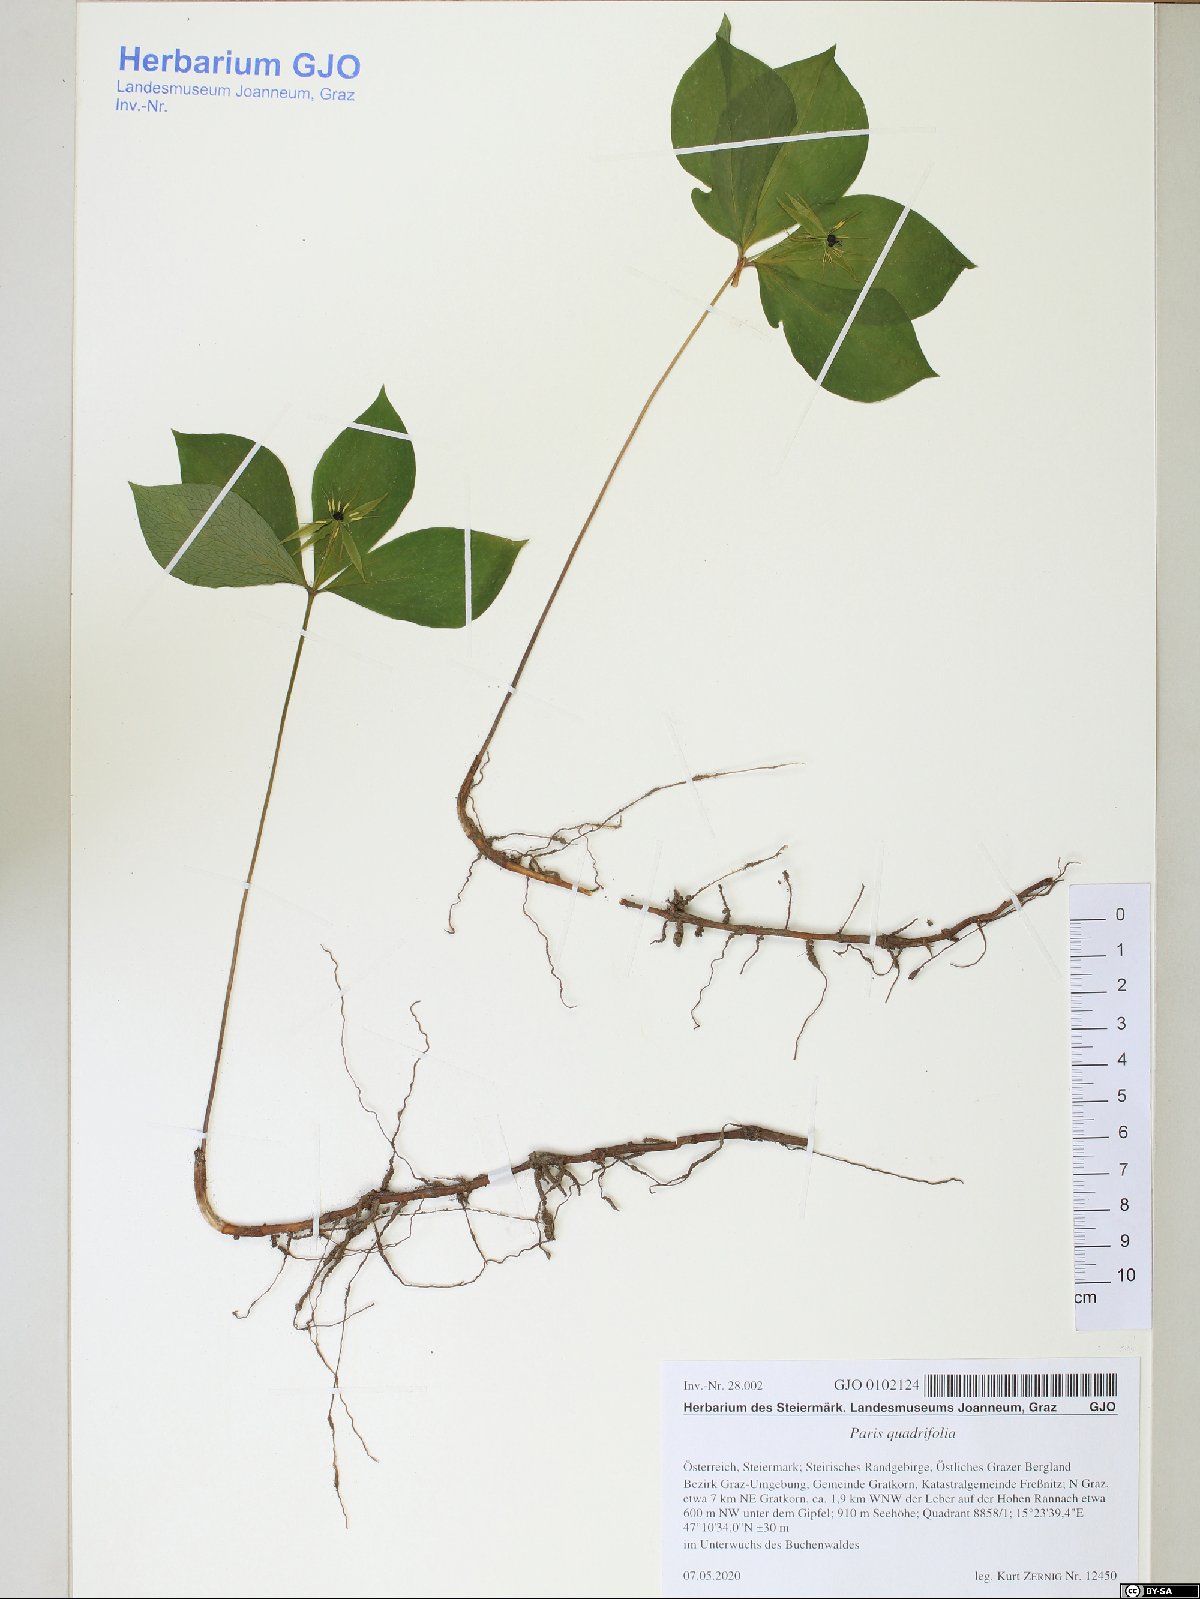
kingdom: Plantae
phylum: Tracheophyta
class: Liliopsida
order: Liliales
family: Melanthiaceae
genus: Paris
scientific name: Paris quadrifolia
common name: Herb-paris
